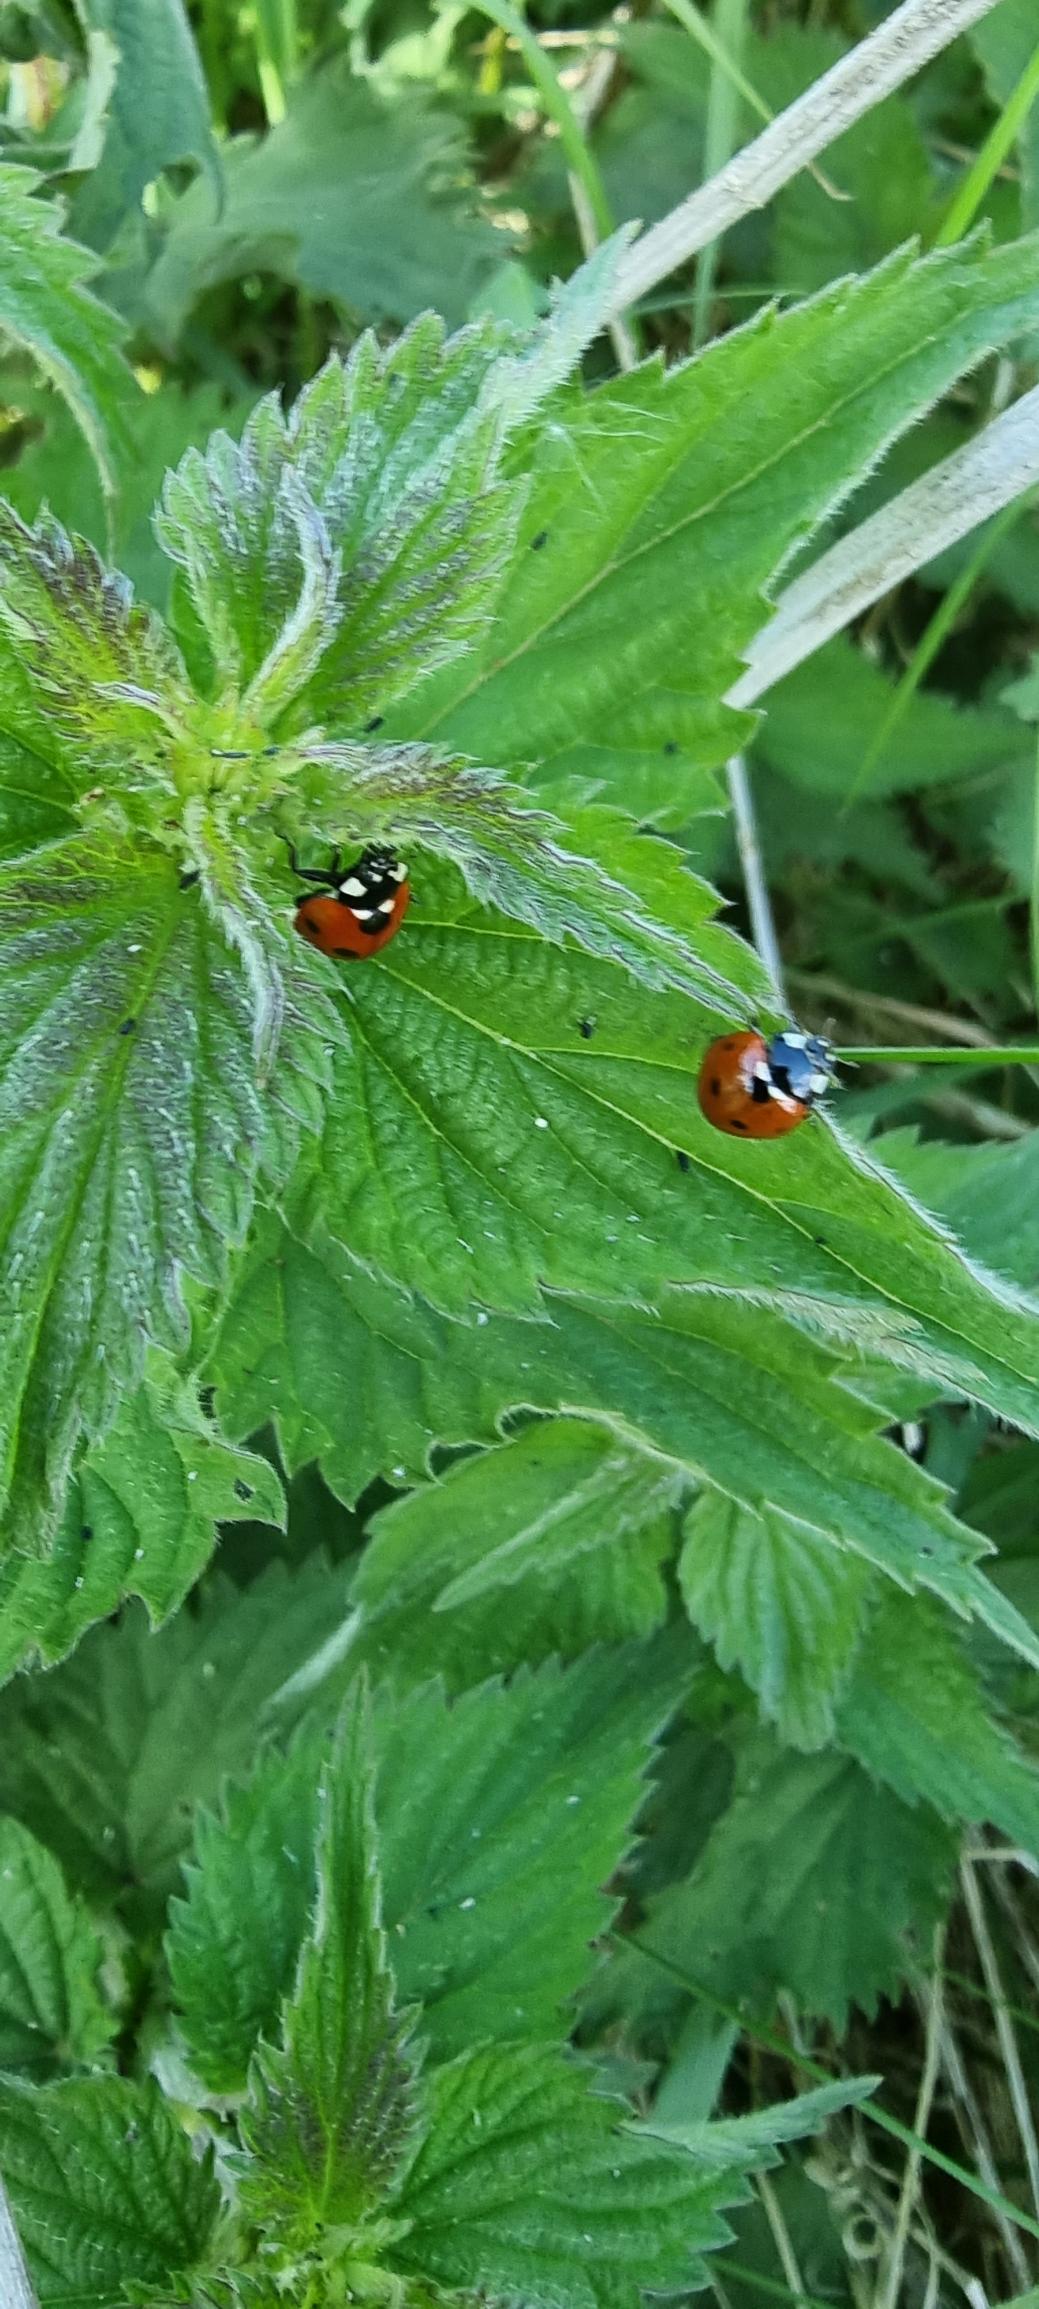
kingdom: Animalia
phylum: Arthropoda
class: Insecta
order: Coleoptera
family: Coccinellidae
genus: Coccinella
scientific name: Coccinella septempunctata
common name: Syvplettet mariehøne
